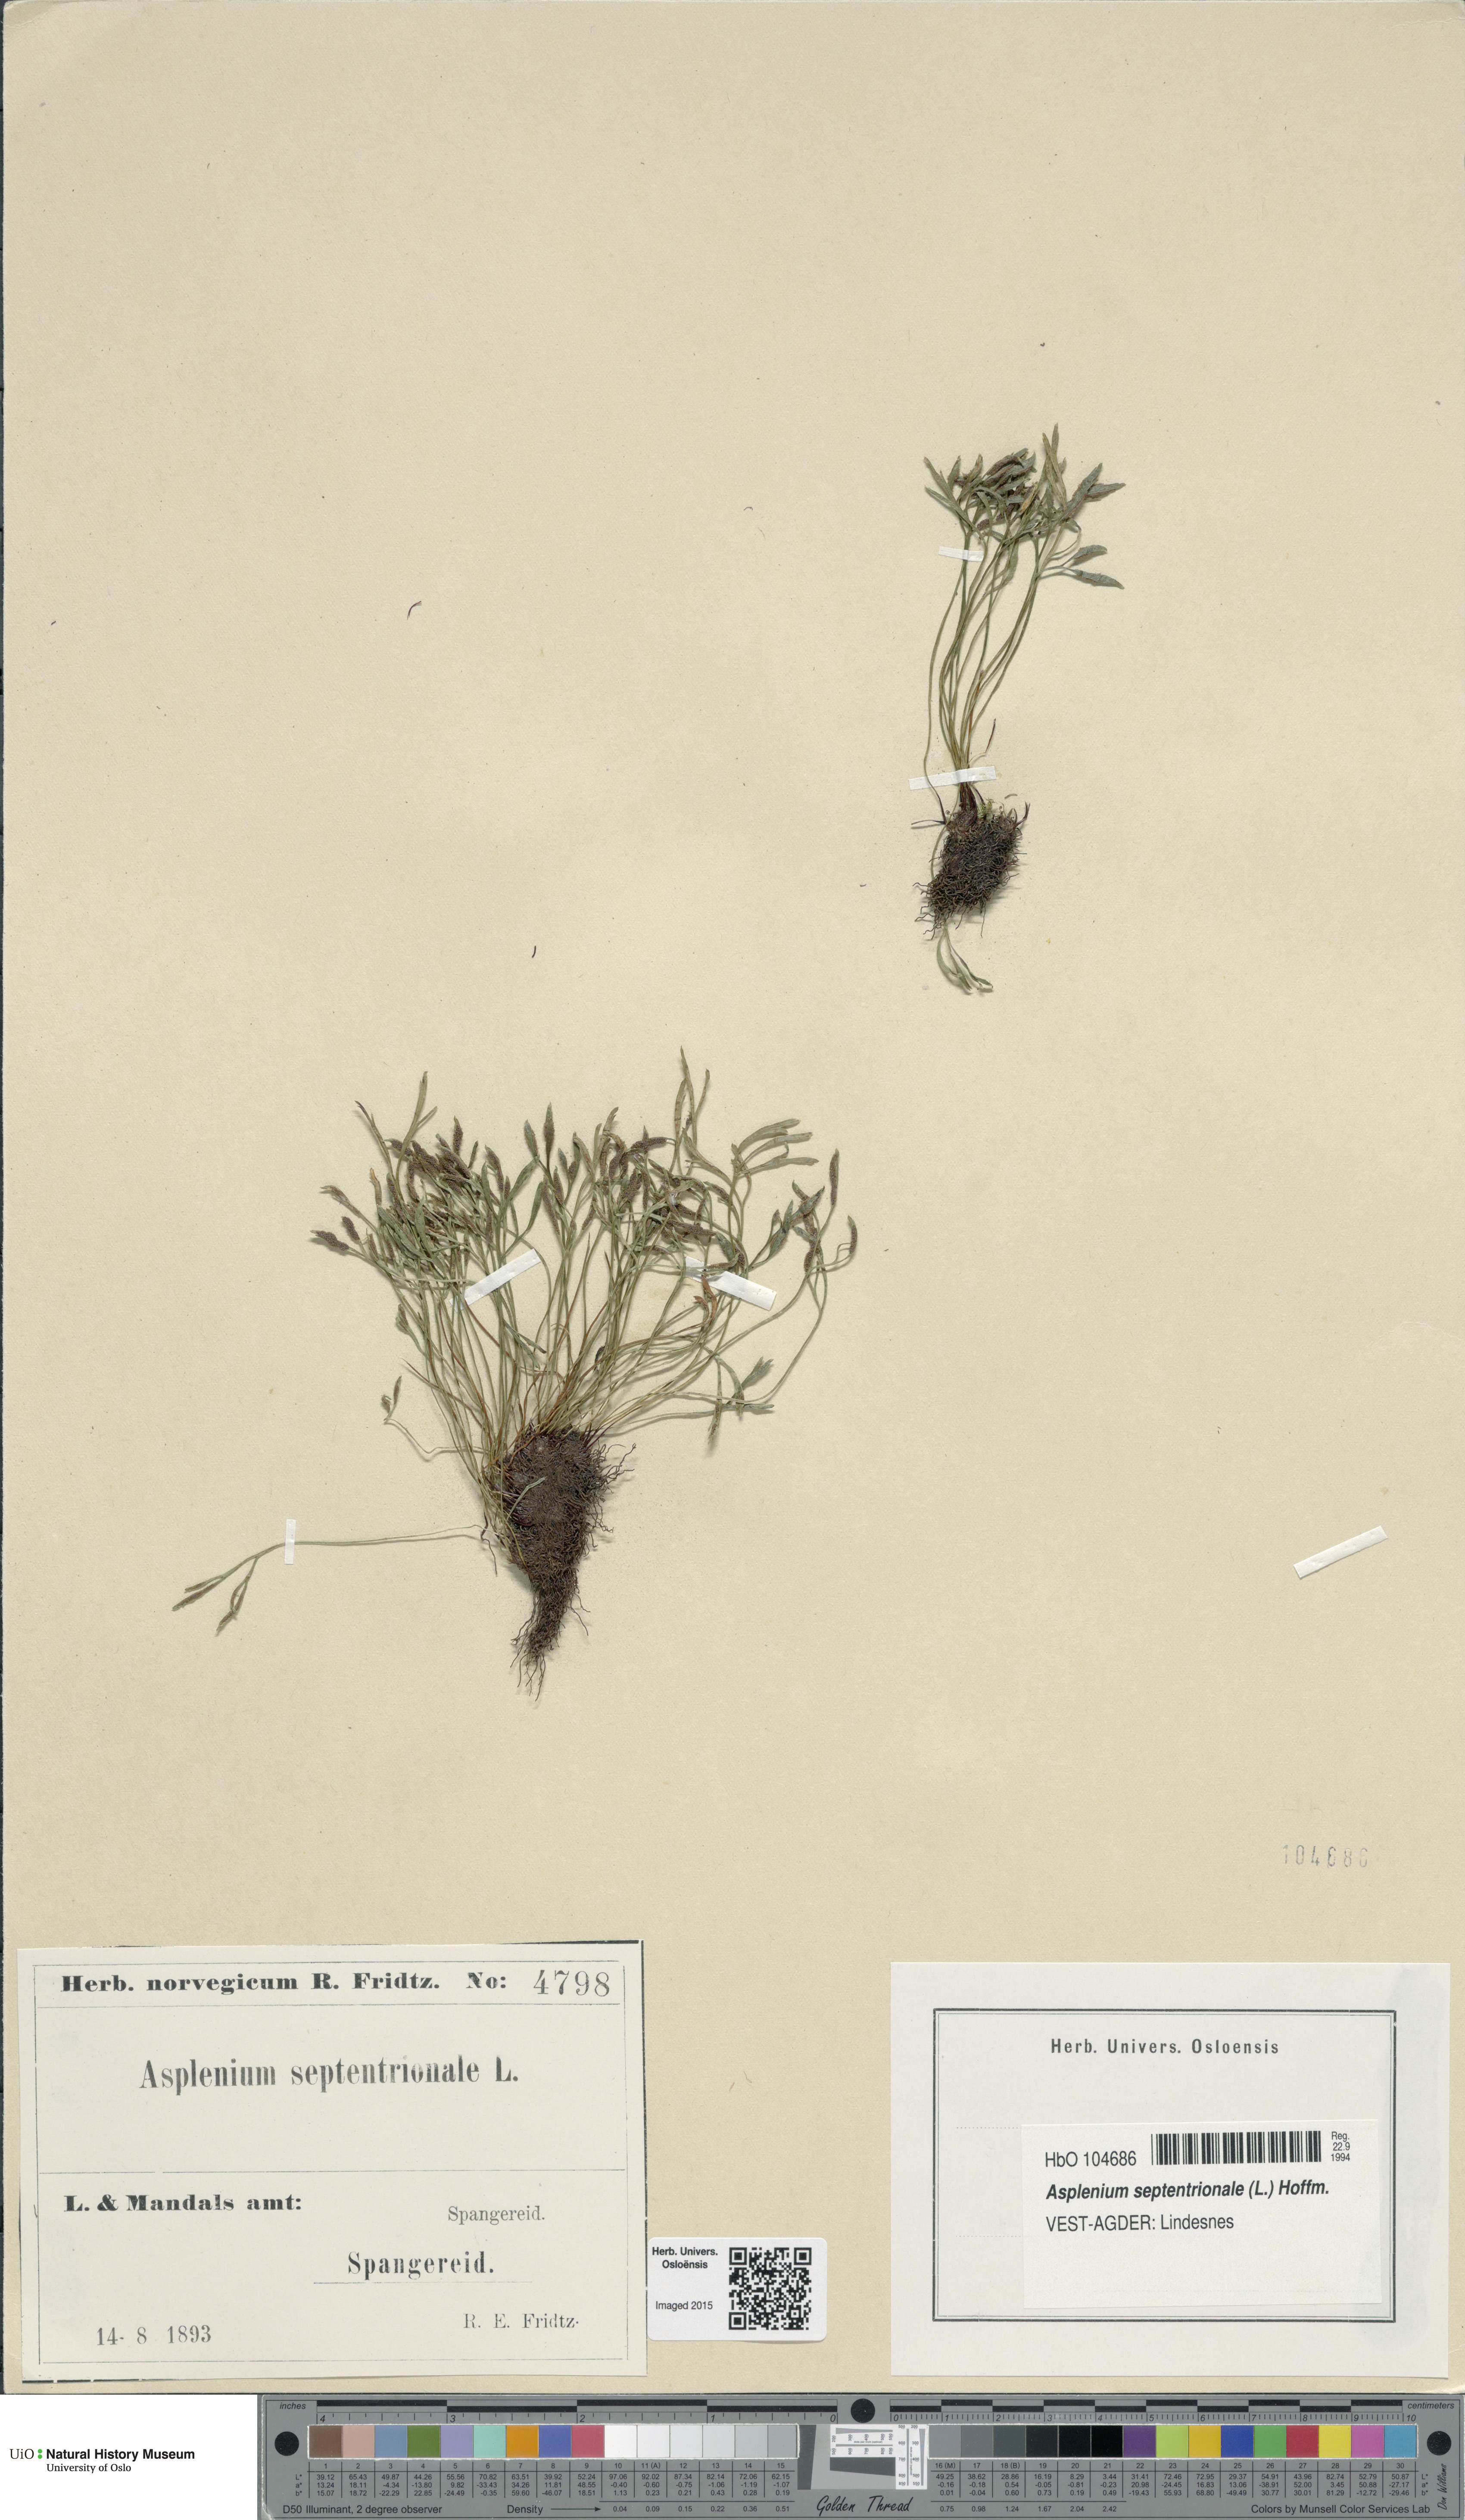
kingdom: Plantae
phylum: Tracheophyta
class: Polypodiopsida
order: Polypodiales
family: Aspleniaceae
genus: Asplenium
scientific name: Asplenium septentrionale
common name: Forked spleenwort
